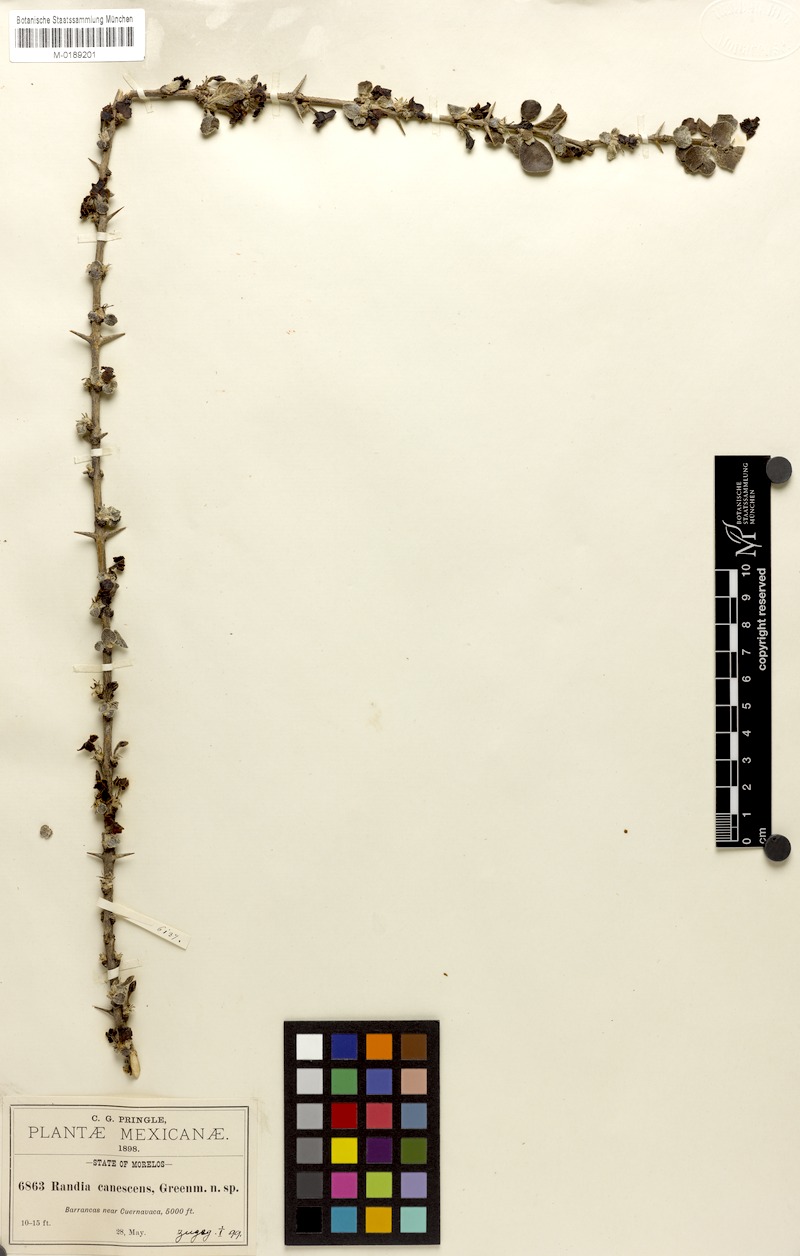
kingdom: Plantae
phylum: Tracheophyta
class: Magnoliopsida
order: Gentianales
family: Rubiaceae
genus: Randia
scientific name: Randia canescens
